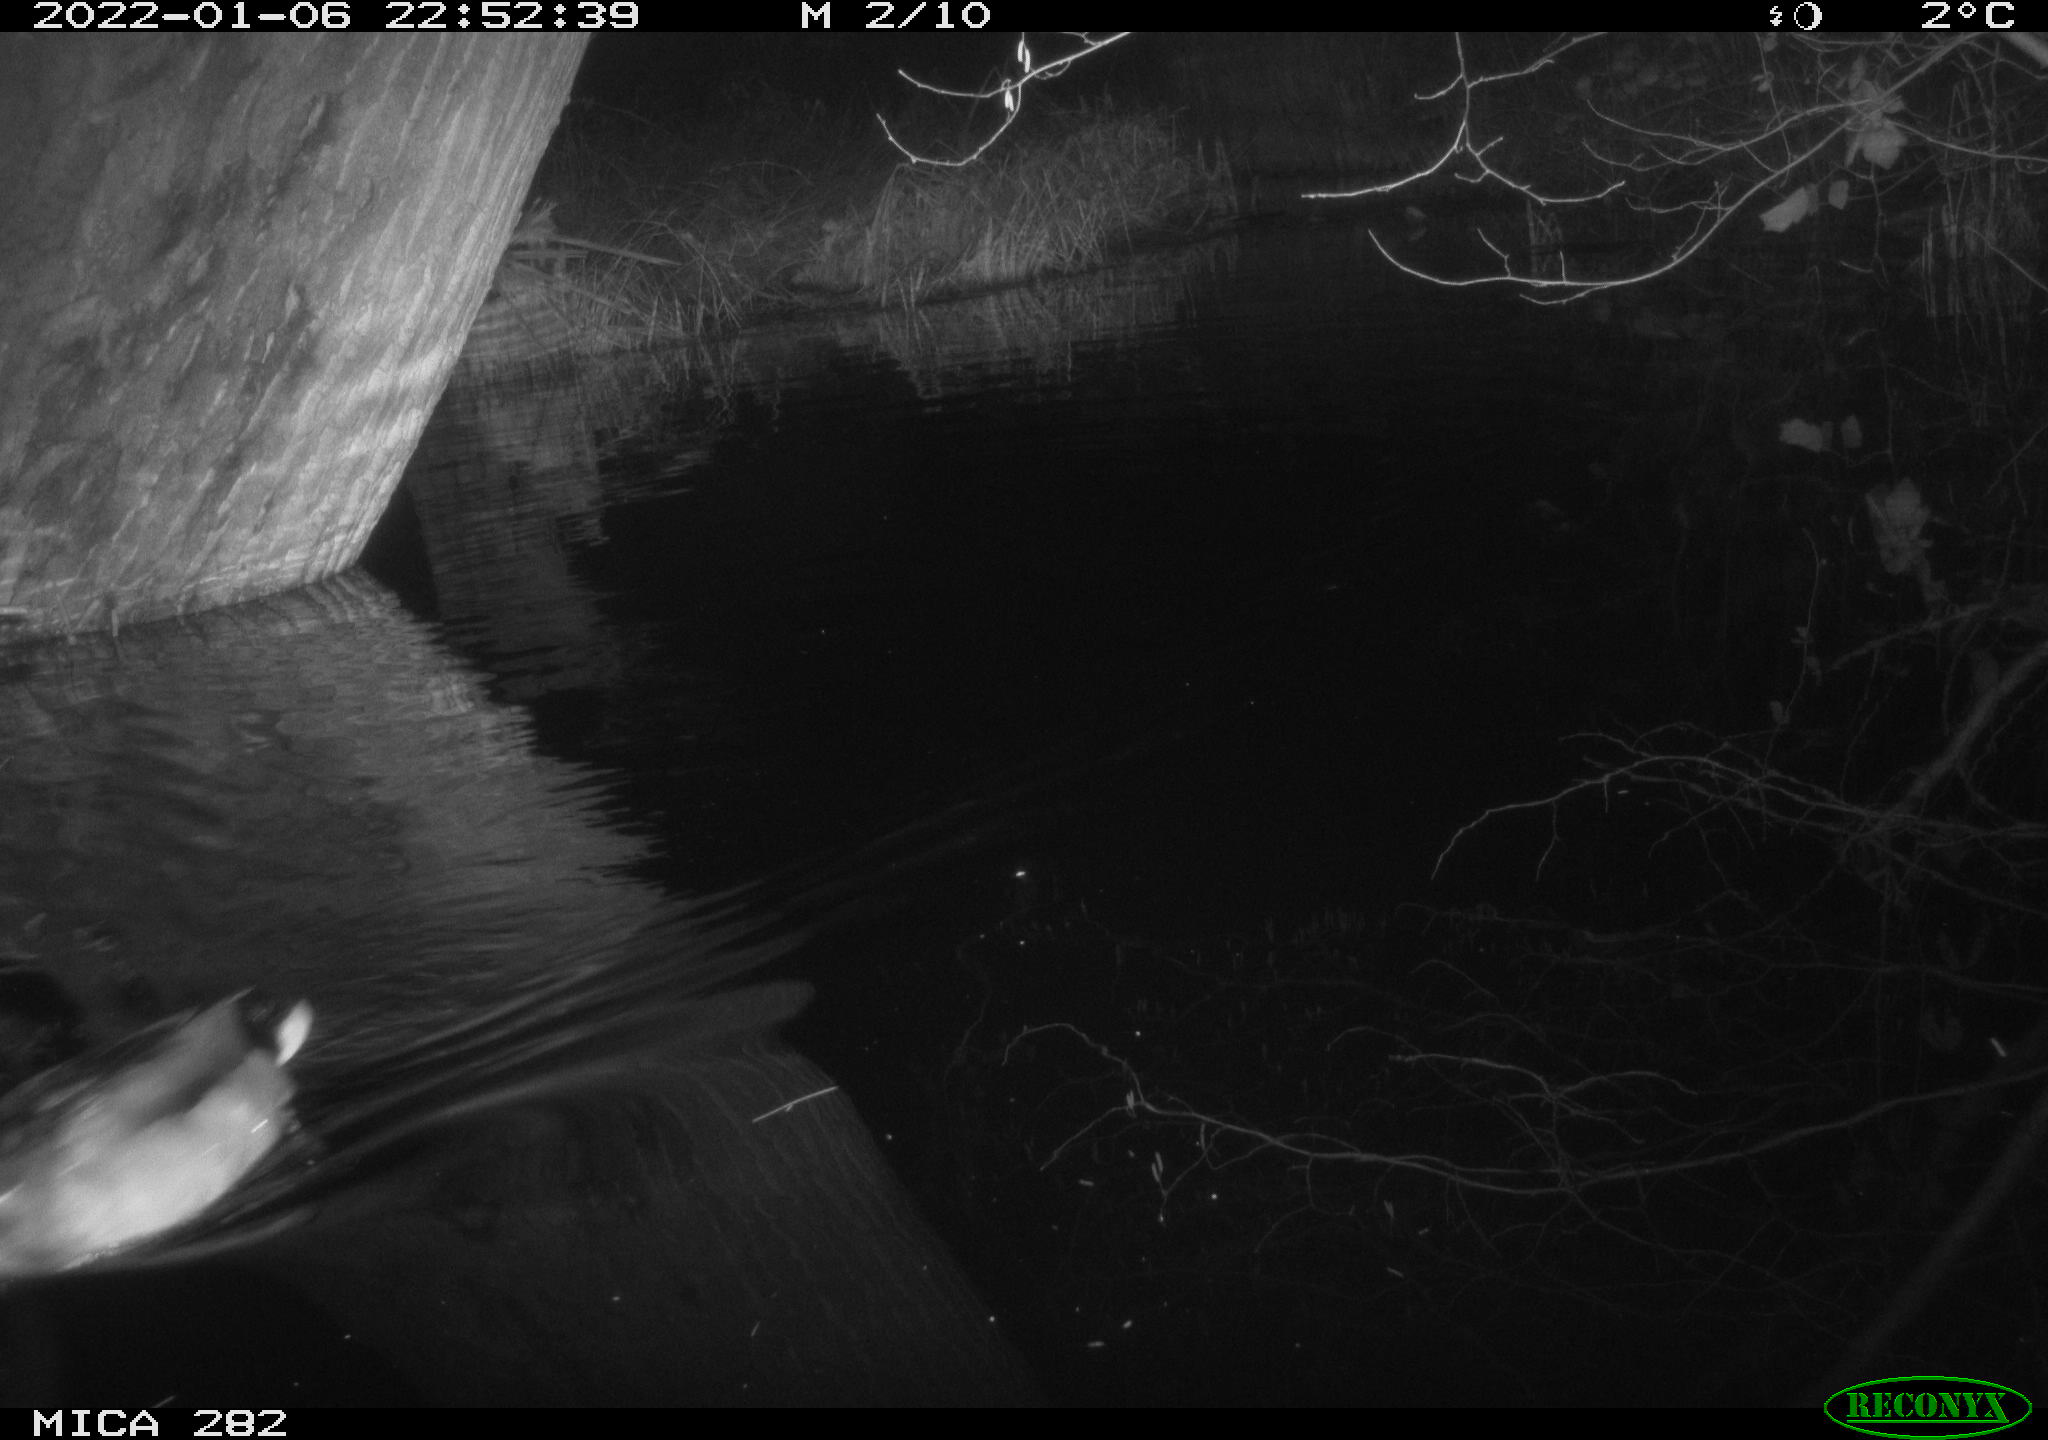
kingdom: Animalia
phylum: Chordata
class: Aves
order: Anseriformes
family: Anatidae
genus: Anas
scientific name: Anas platyrhynchos
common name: Mallard
